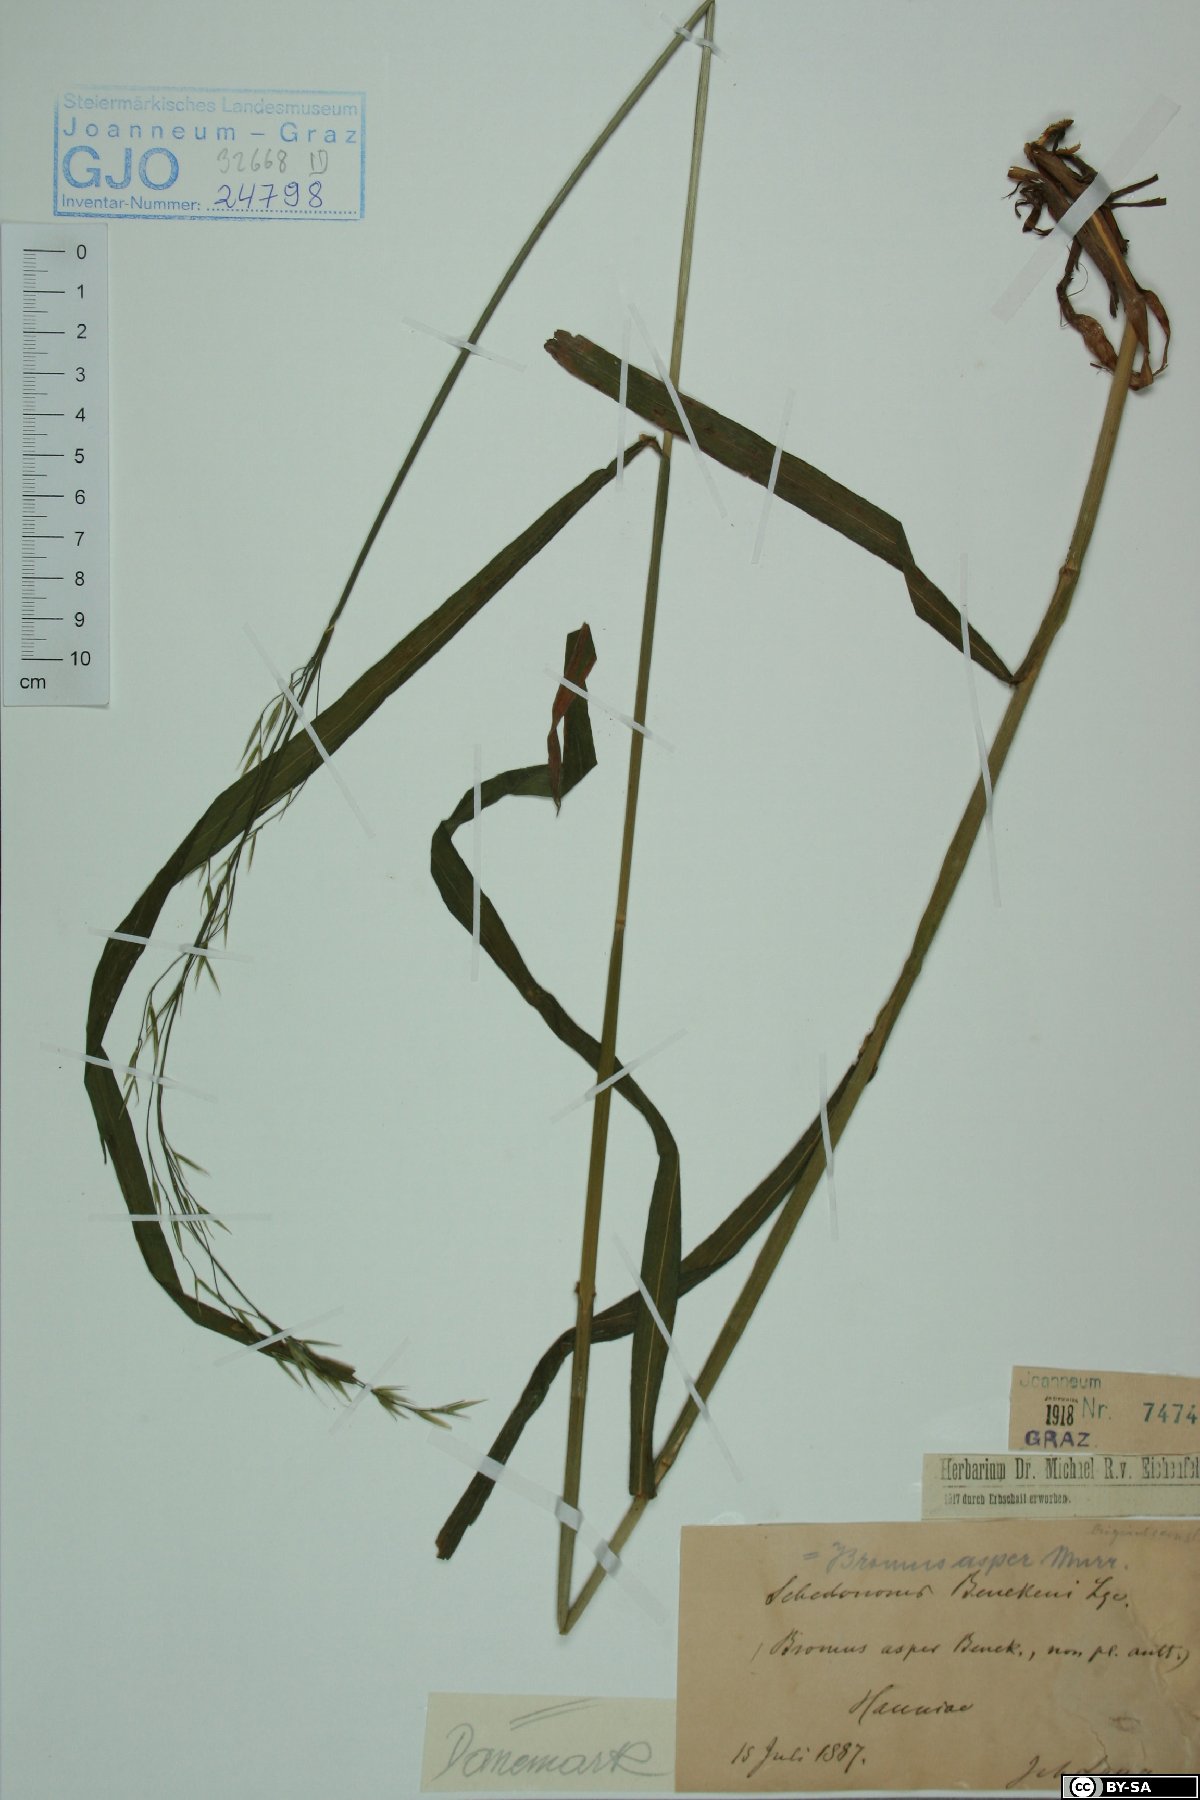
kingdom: Plantae
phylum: Tracheophyta
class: Liliopsida
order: Poales
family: Poaceae
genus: Bromus
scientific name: Bromus ramosus
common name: Hairy brome
